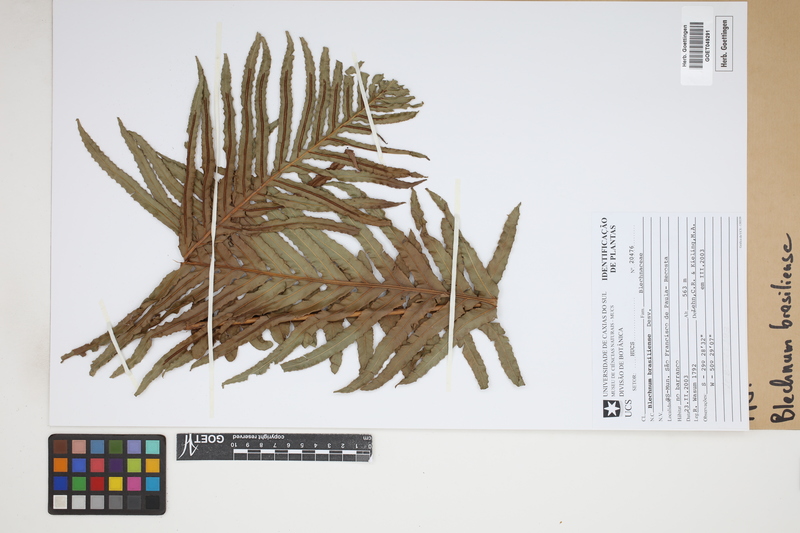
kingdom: Plantae
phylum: Tracheophyta
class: Polypodiopsida
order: Polypodiales
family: Blechnaceae
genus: Neoblechnum
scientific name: Neoblechnum brasiliense
